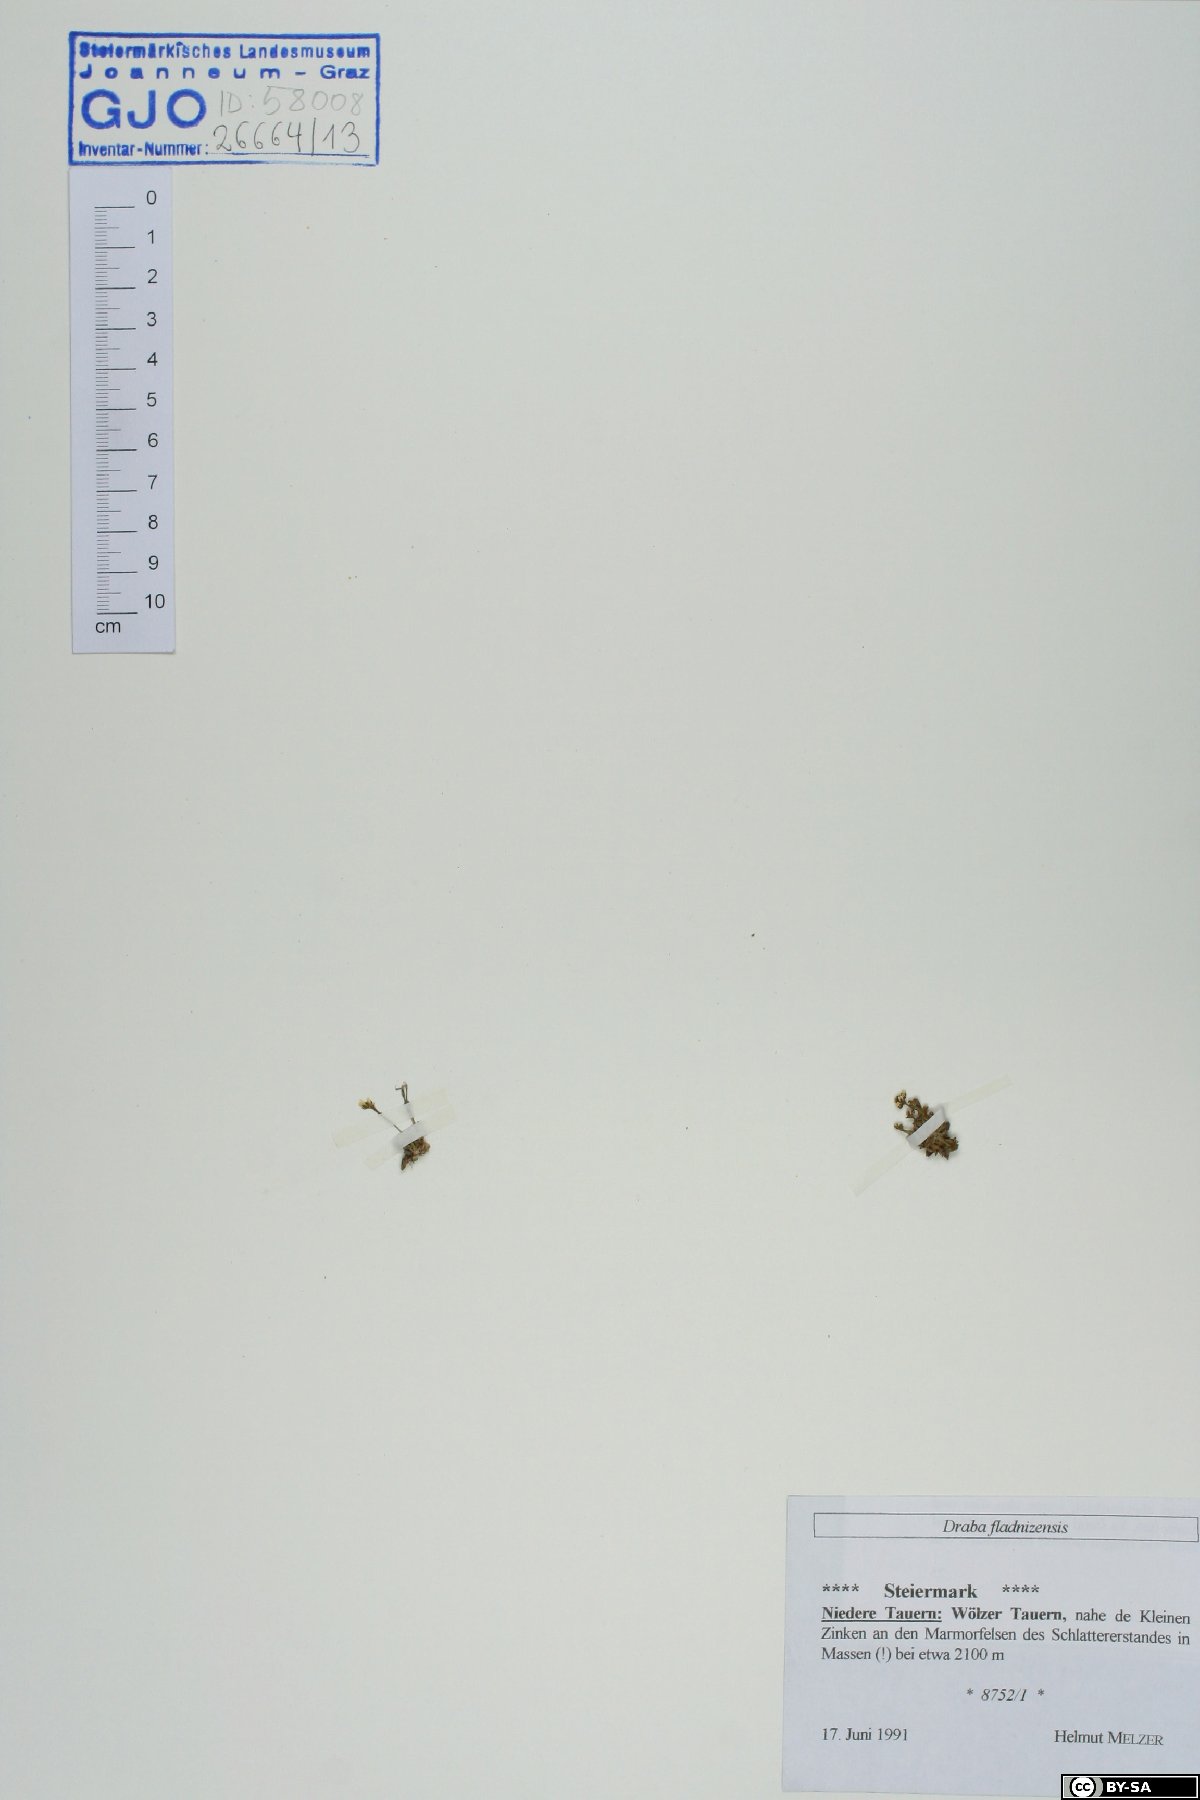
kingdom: Plantae
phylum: Tracheophyta
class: Magnoliopsida
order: Brassicales
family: Brassicaceae
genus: Draba
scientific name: Draba fladnizensis
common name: Austrian draba
